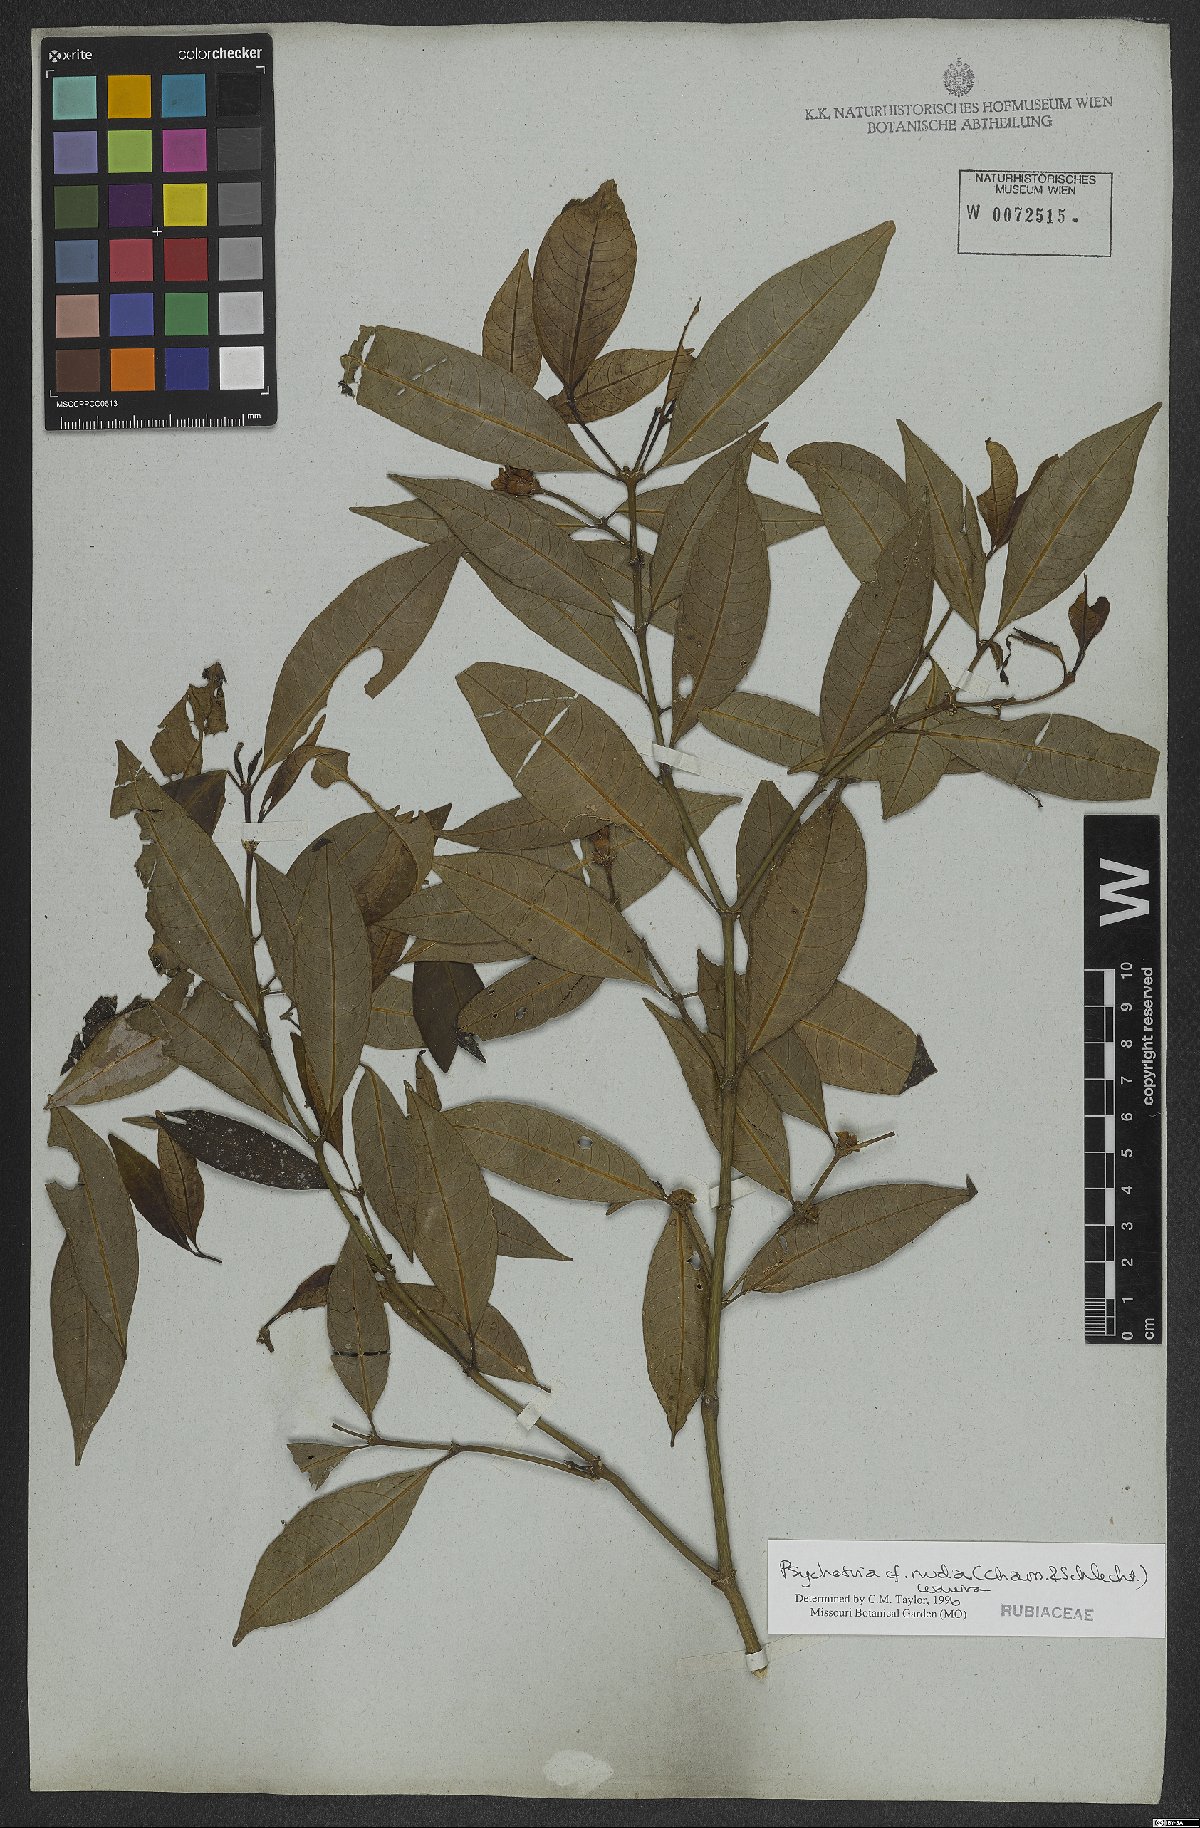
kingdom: Plantae
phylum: Tracheophyta
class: Magnoliopsida
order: Gentianales
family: Rubiaceae
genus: Psychotria
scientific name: Psychotria nuda
